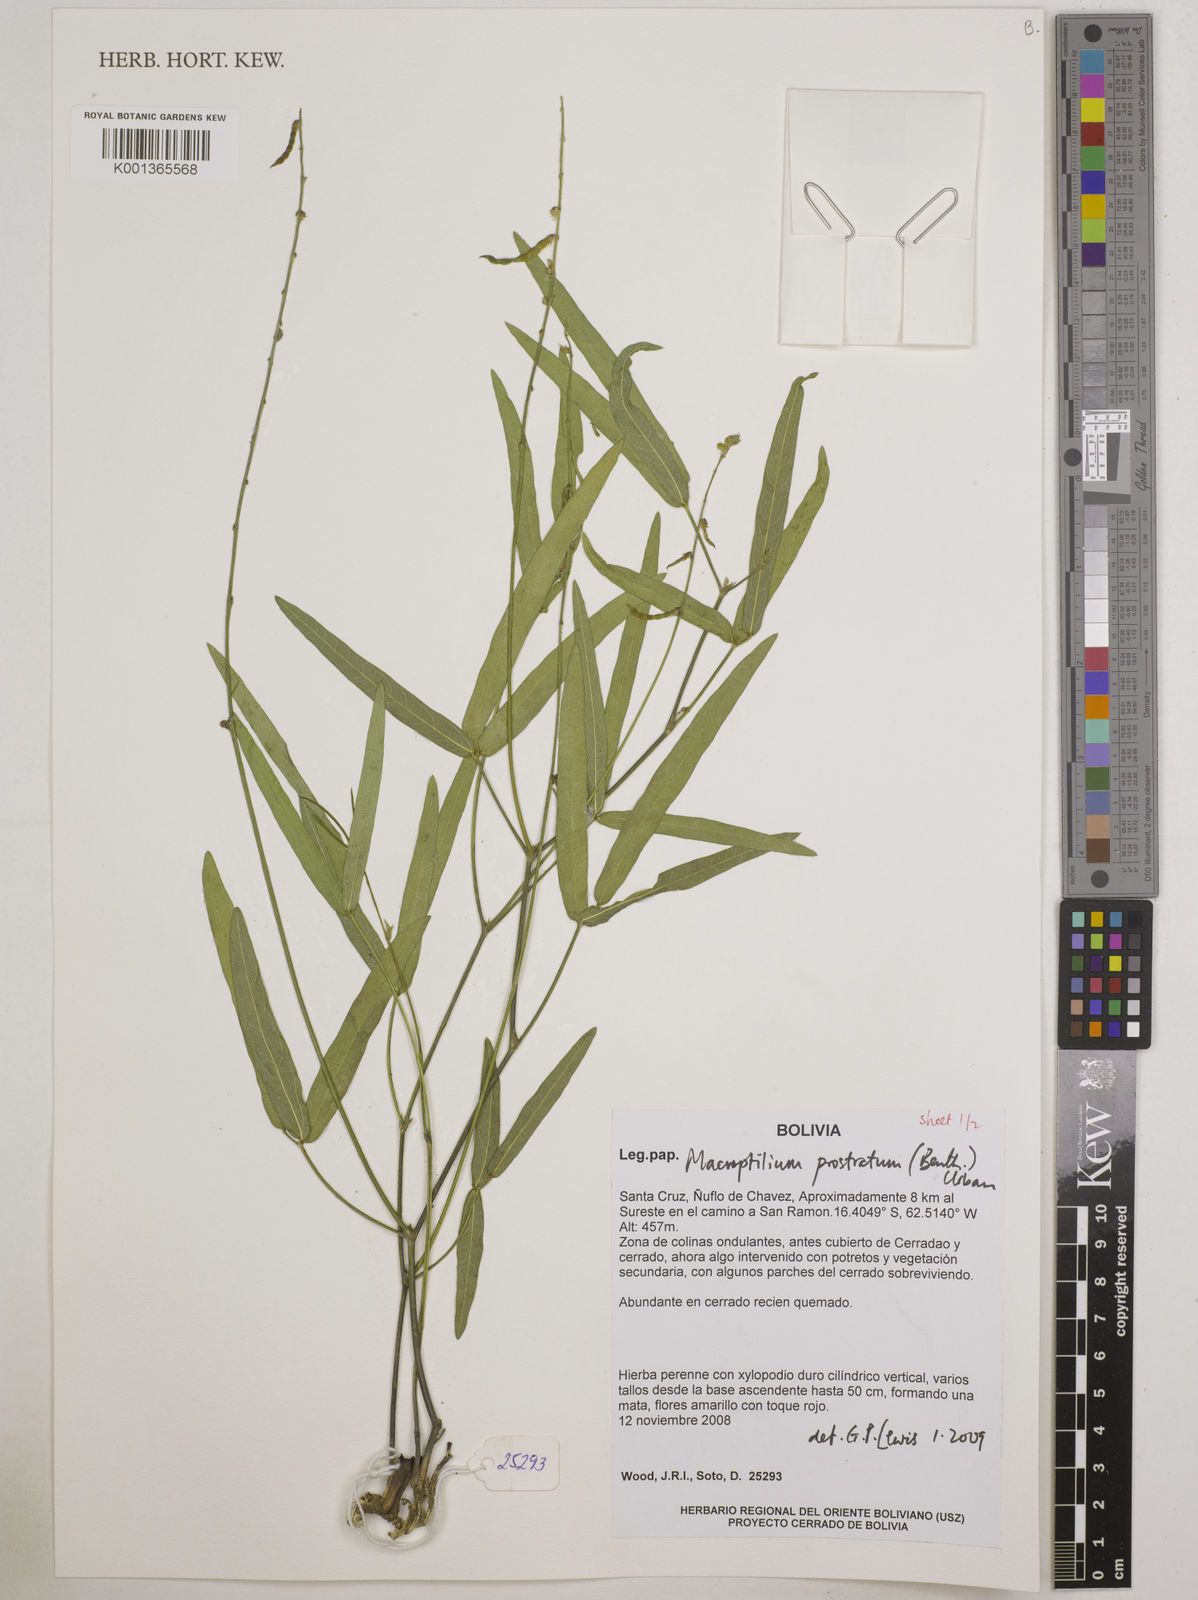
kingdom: Plantae
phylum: Tracheophyta
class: Magnoliopsida
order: Fabales
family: Fabaceae
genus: Macroptilium
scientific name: Macroptilium prostratum
